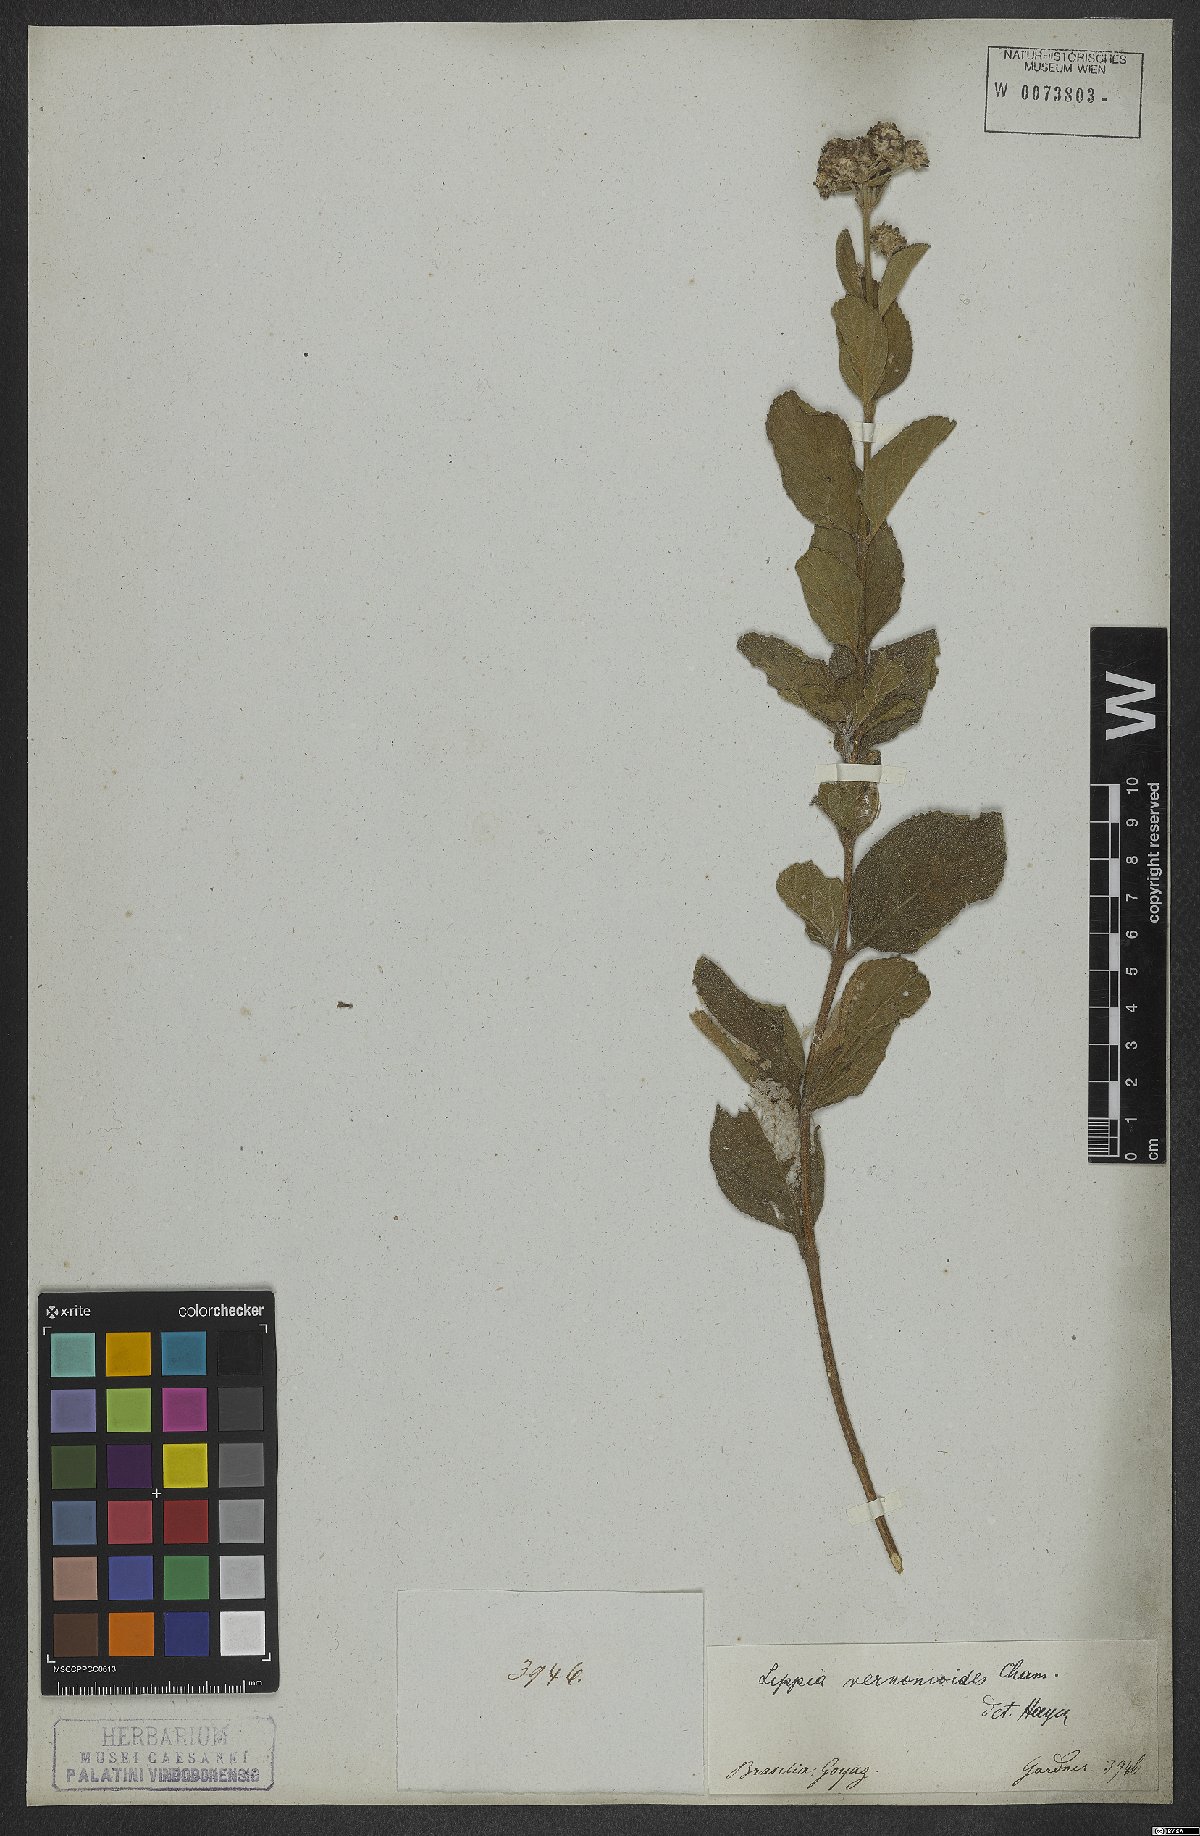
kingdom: Plantae
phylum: Tracheophyta
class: Magnoliopsida
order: Lamiales
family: Verbenaceae
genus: Lippia
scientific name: Lippia vernonioides
